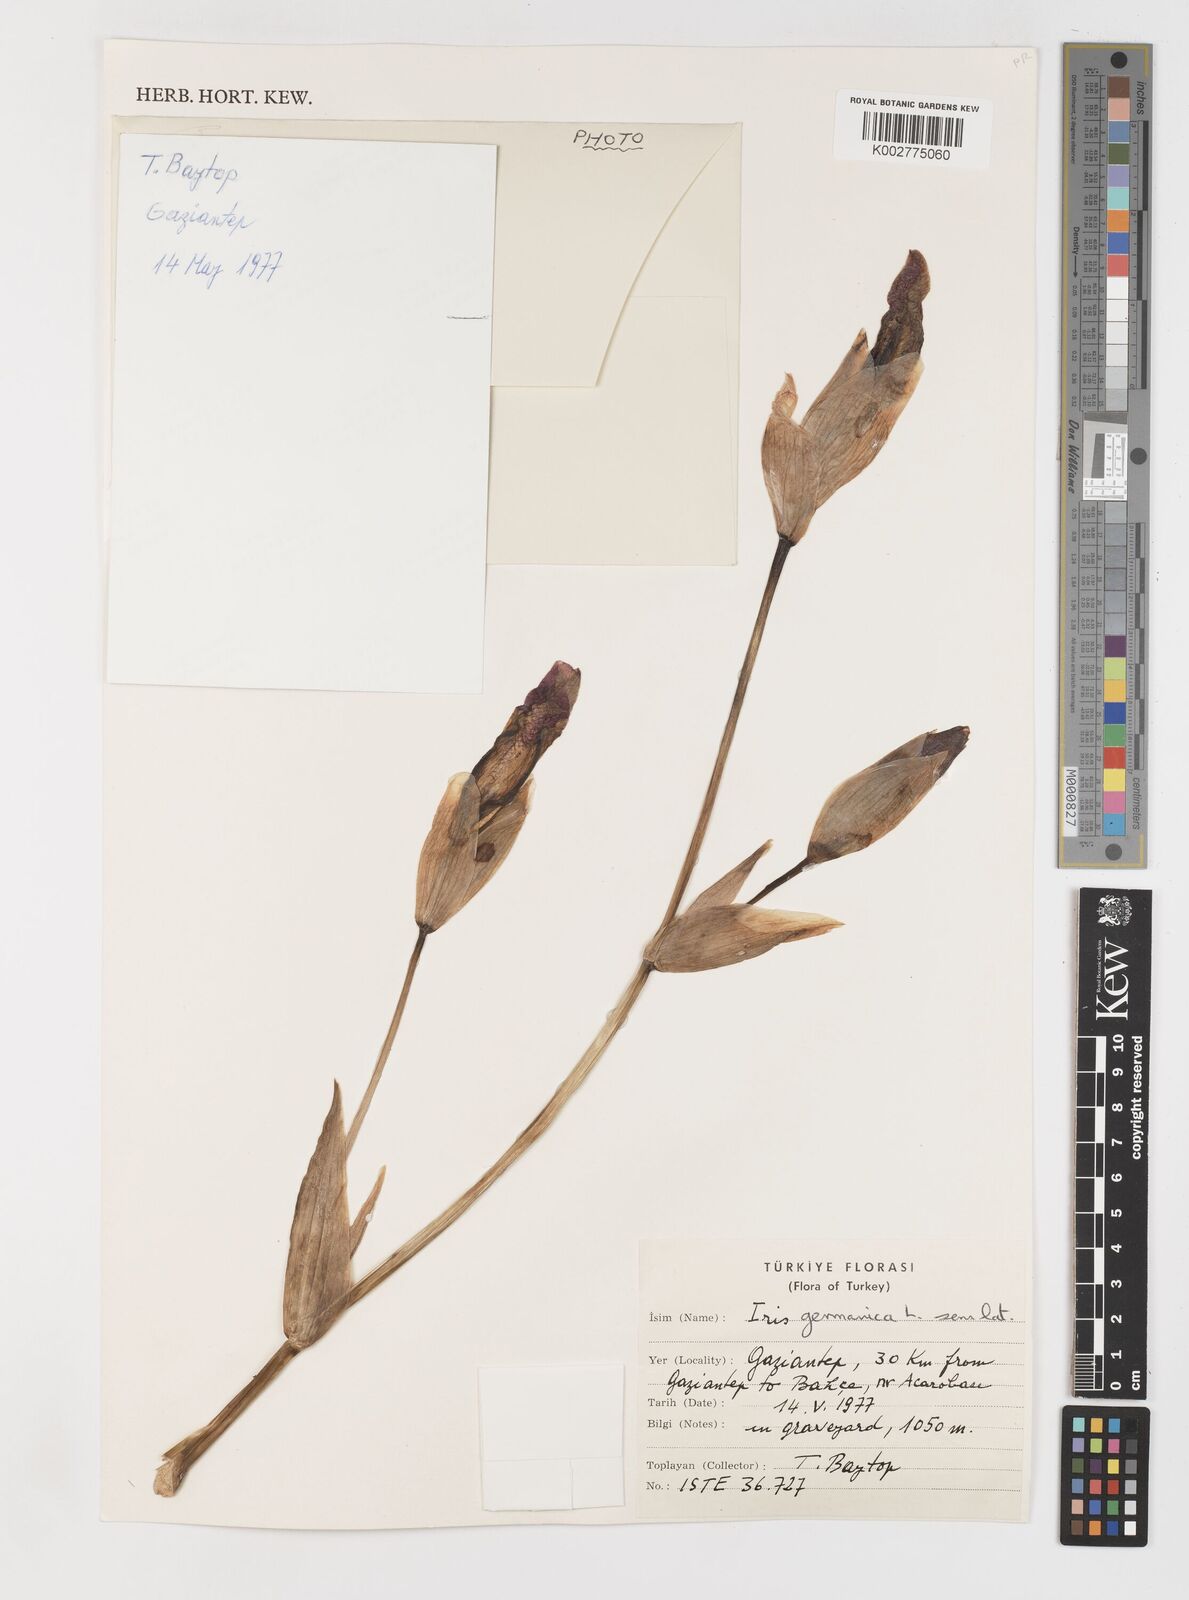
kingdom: Plantae
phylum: Tracheophyta
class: Liliopsida
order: Asparagales
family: Iridaceae
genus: Iris
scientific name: Iris germanica
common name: German iris
